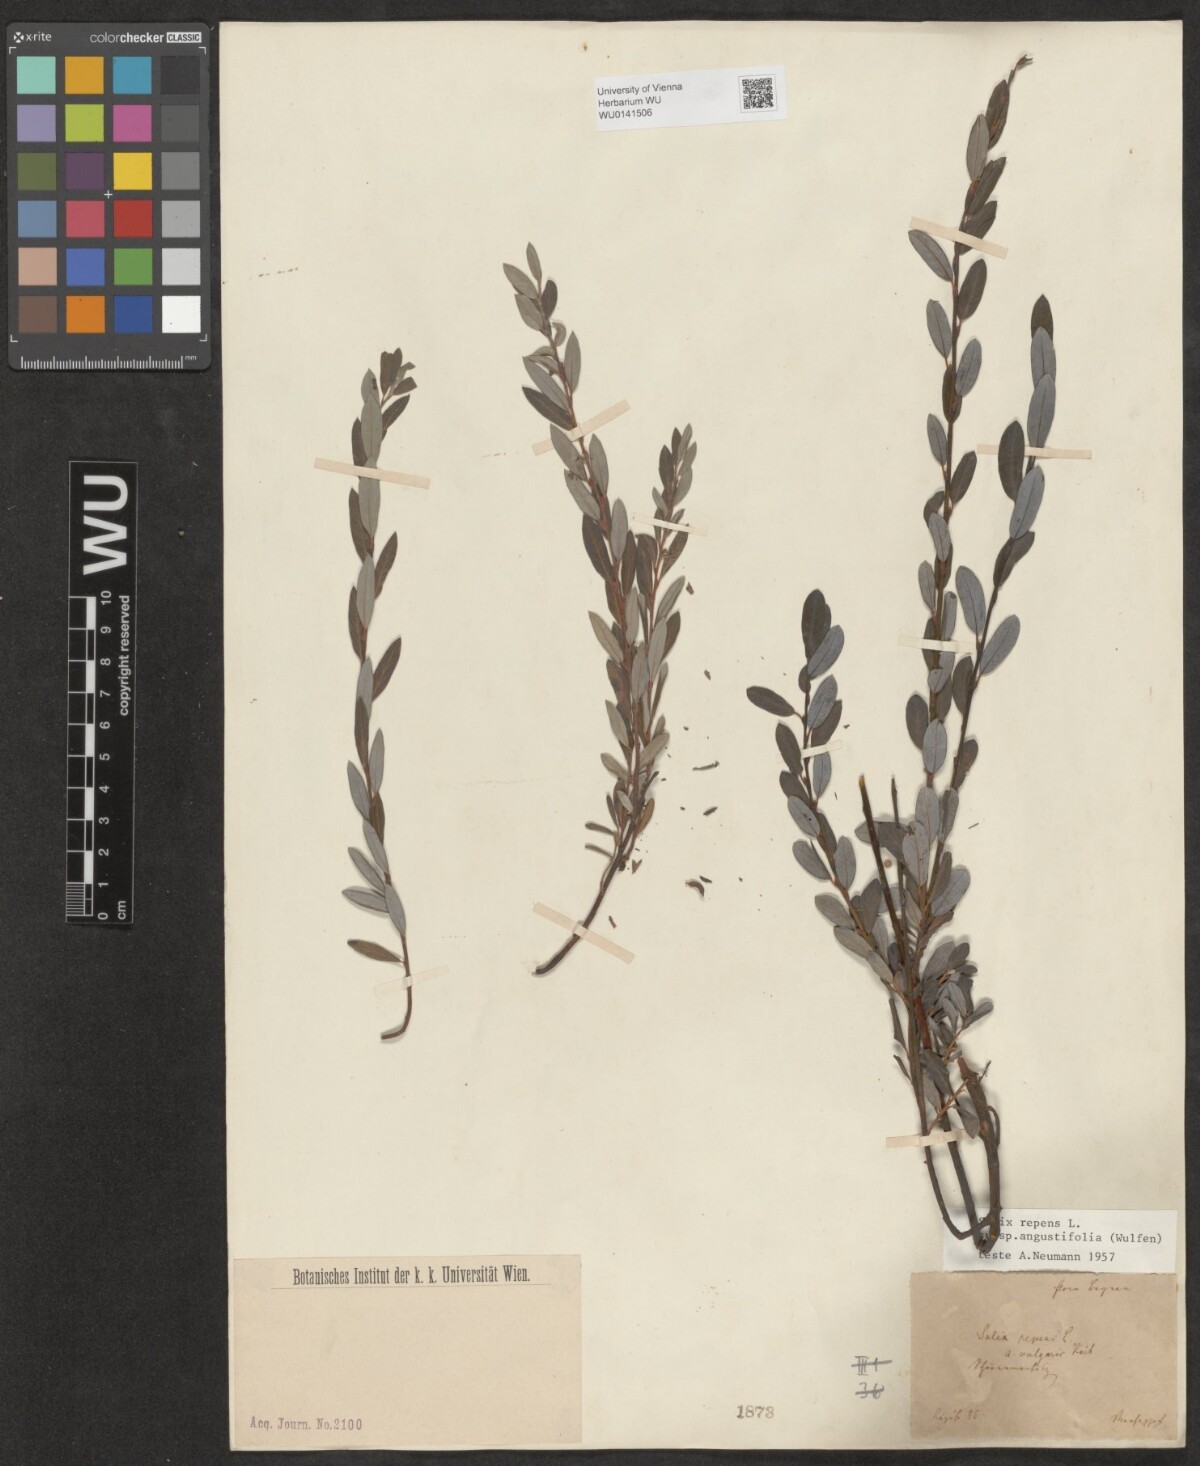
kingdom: Plantae
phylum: Tracheophyta
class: Magnoliopsida
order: Malpighiales
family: Salicaceae
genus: Salix
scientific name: Salix rosmarinifolia
